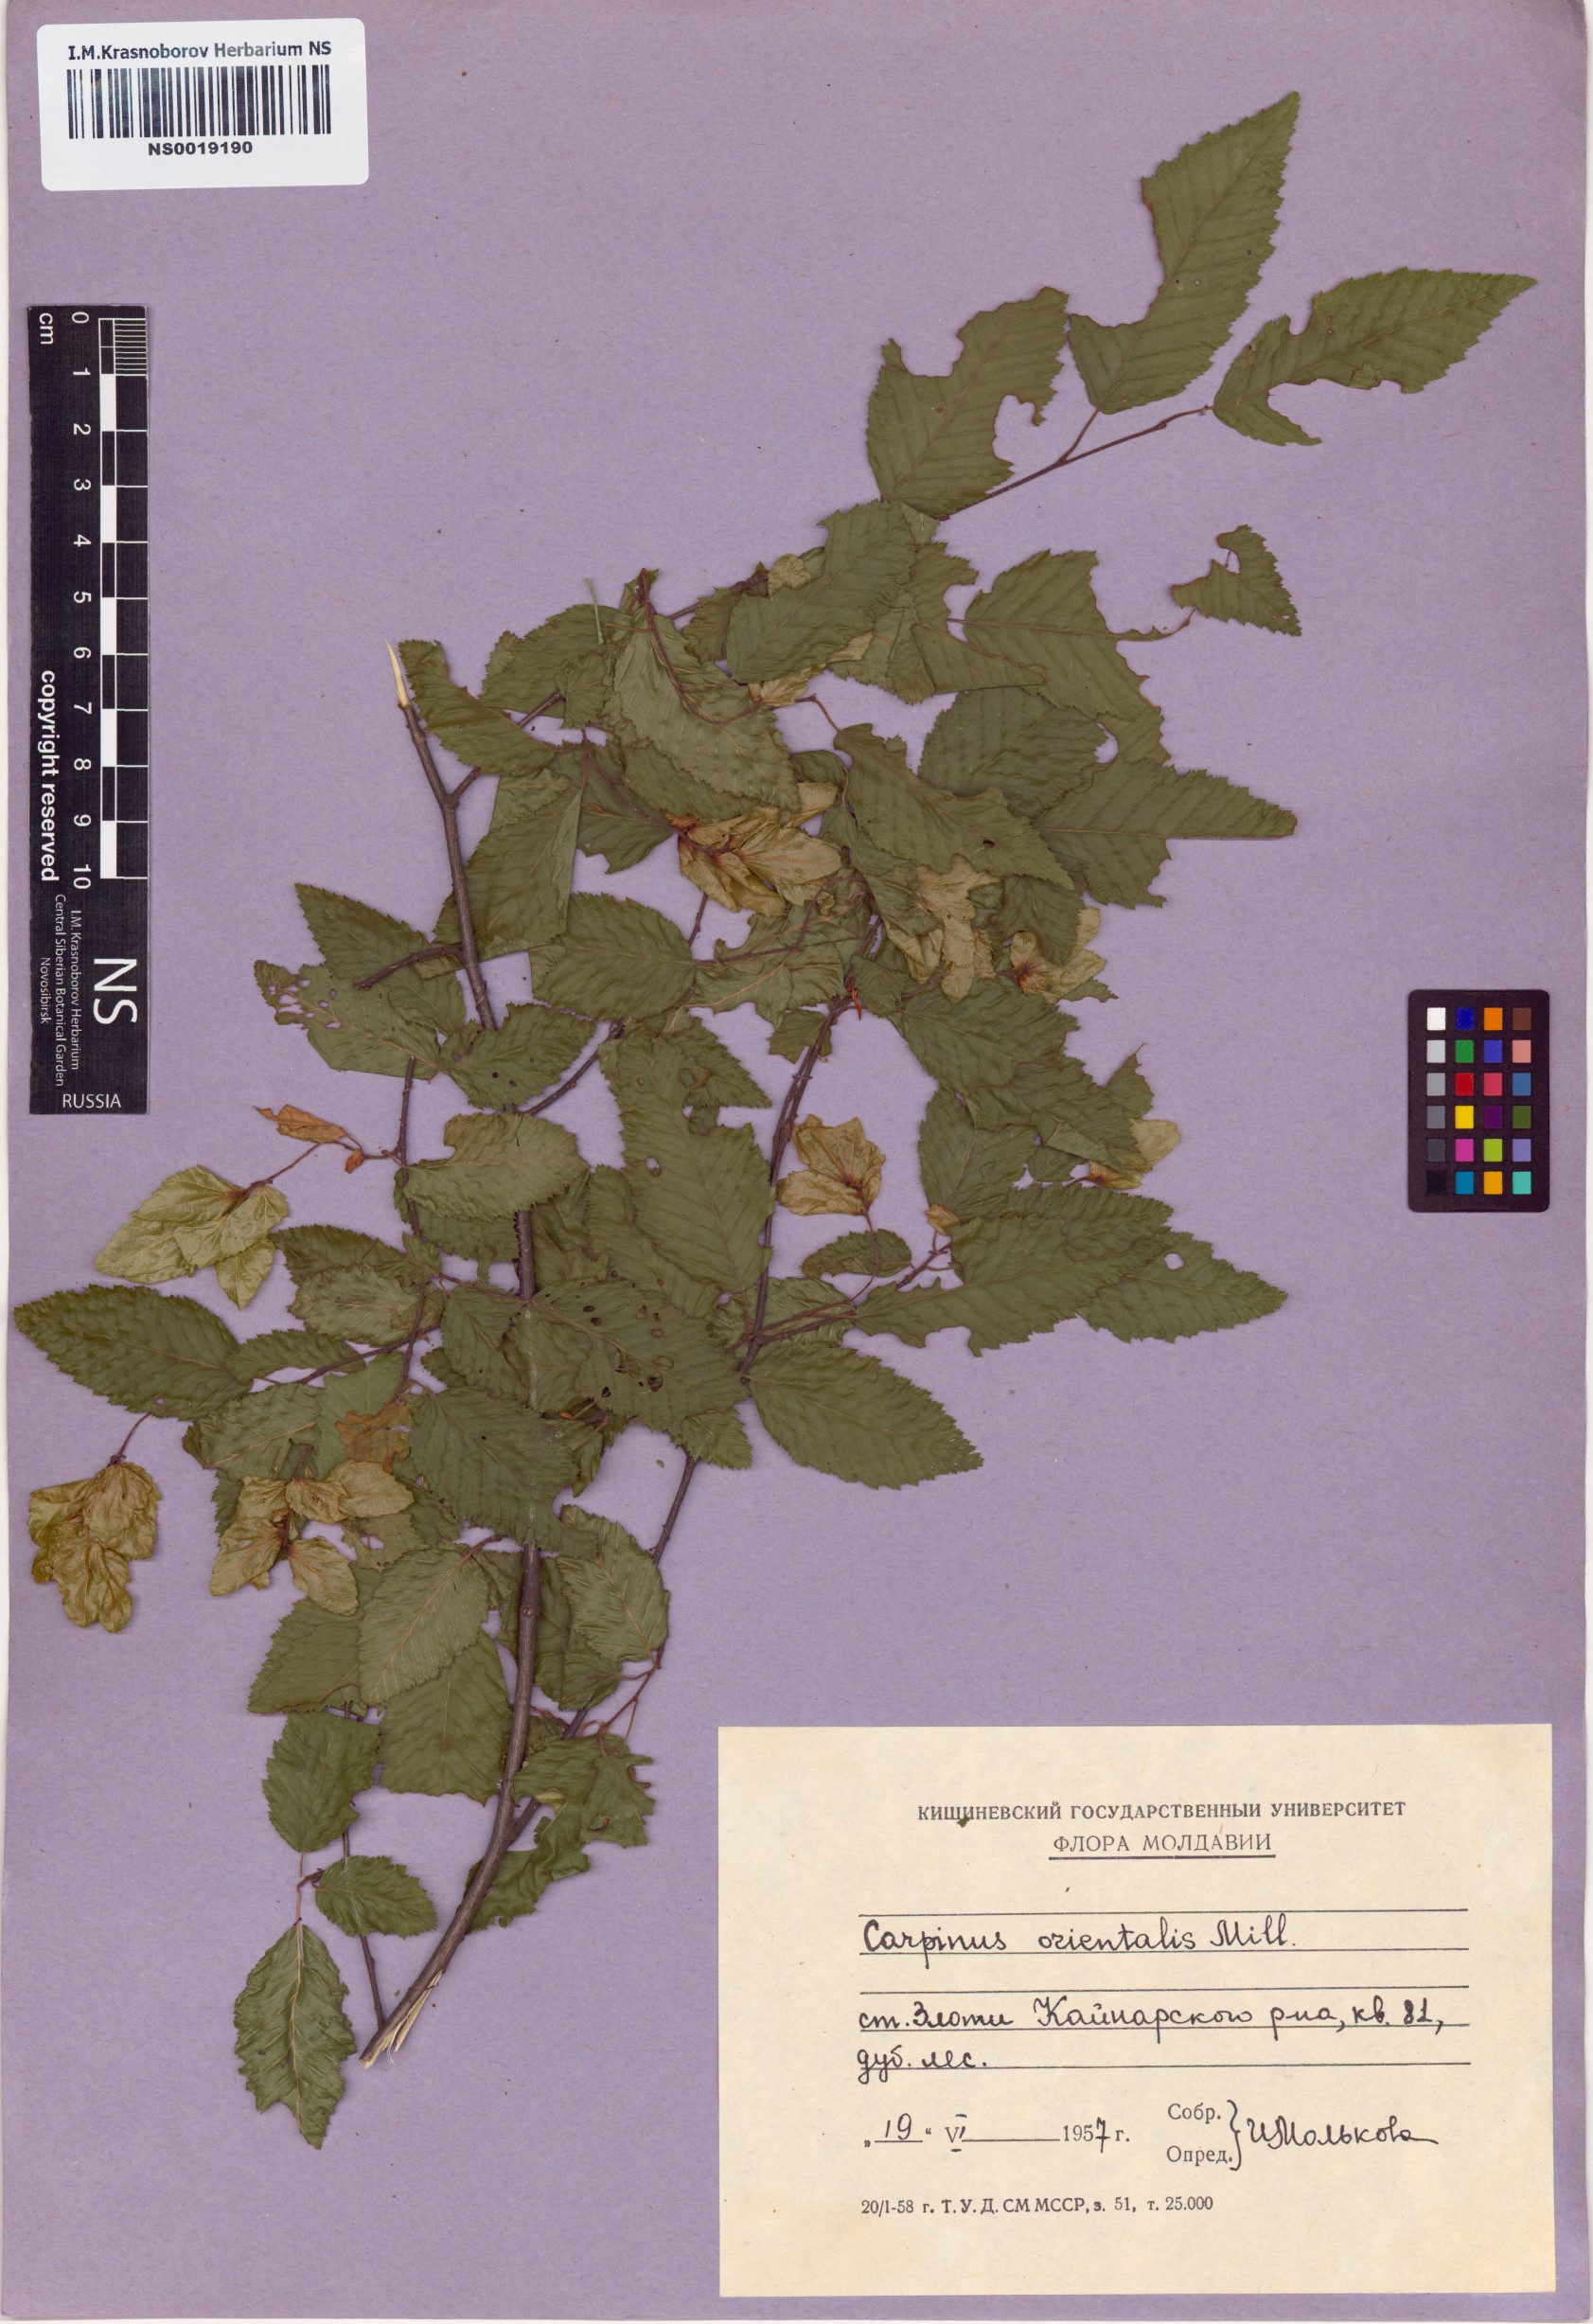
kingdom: Plantae
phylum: Tracheophyta
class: Magnoliopsida
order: Fagales
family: Betulaceae
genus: Carpinus
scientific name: Carpinus orientalis
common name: Eastern hornbeam
